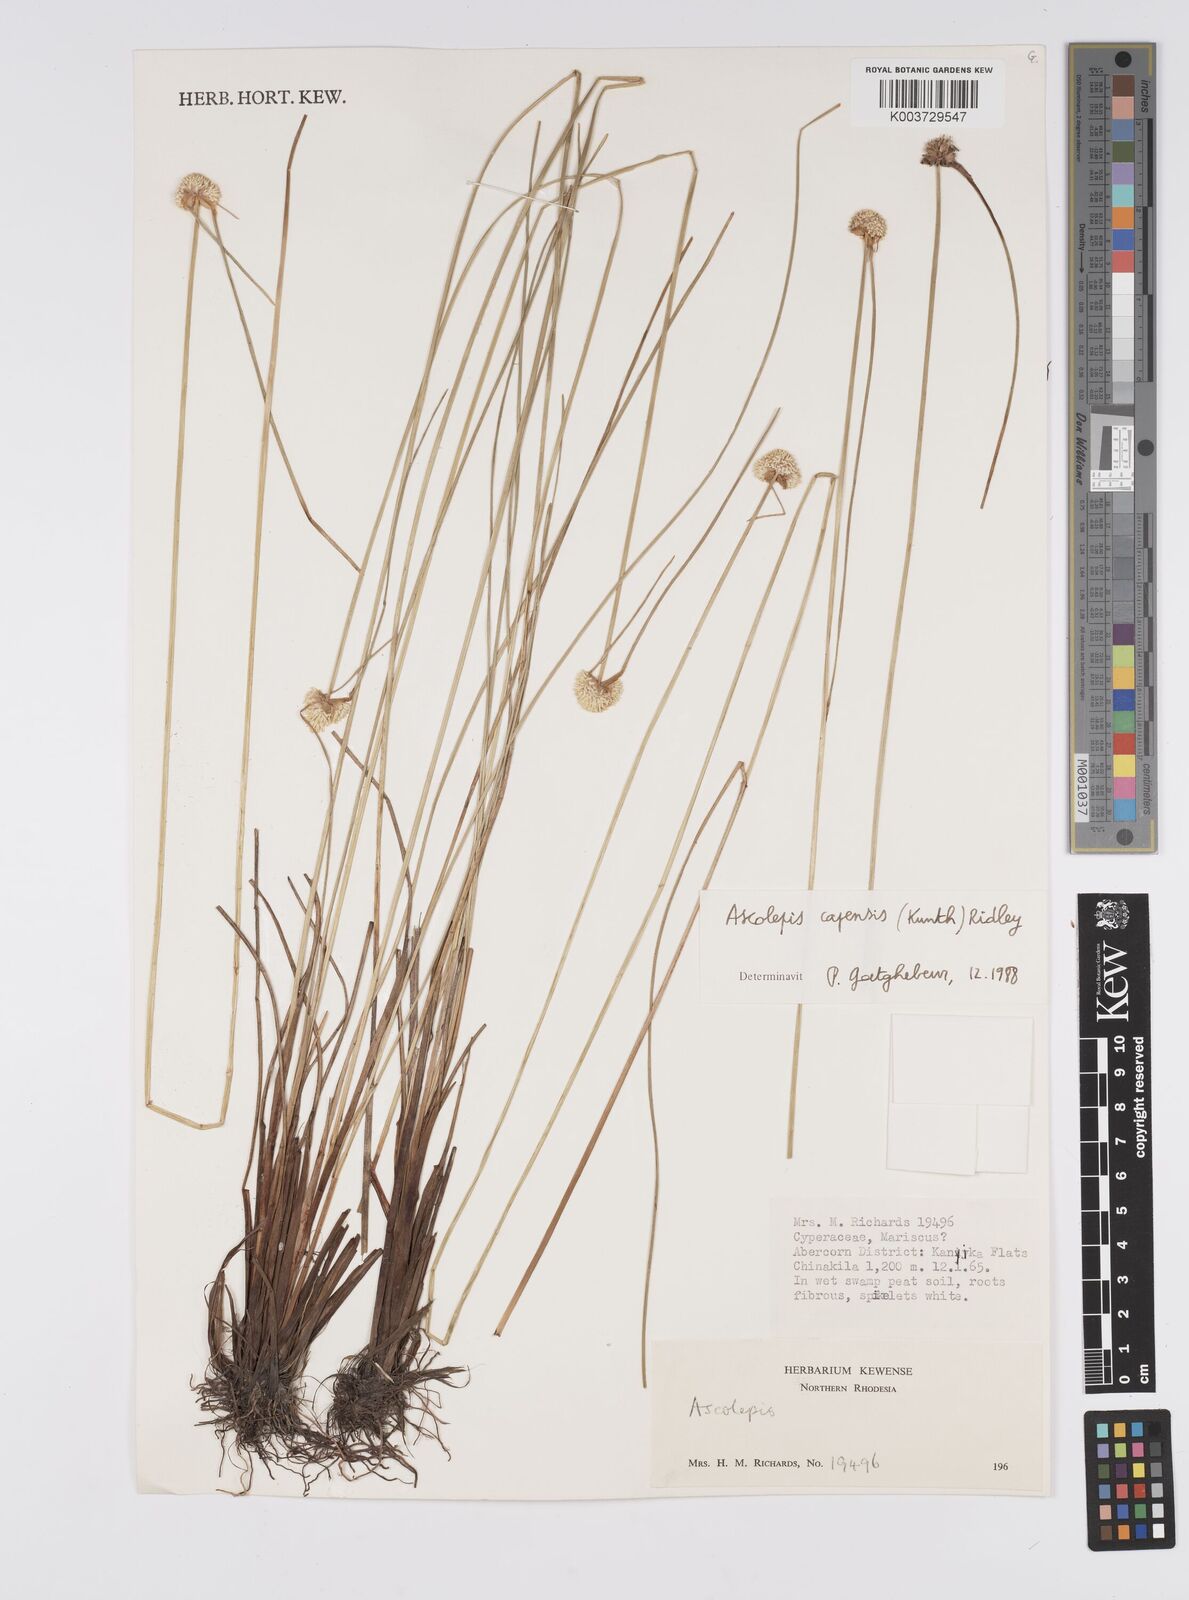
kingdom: Plantae
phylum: Tracheophyta
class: Liliopsida
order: Poales
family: Cyperaceae
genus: Cyperus
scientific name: Cyperus ascocapensis
